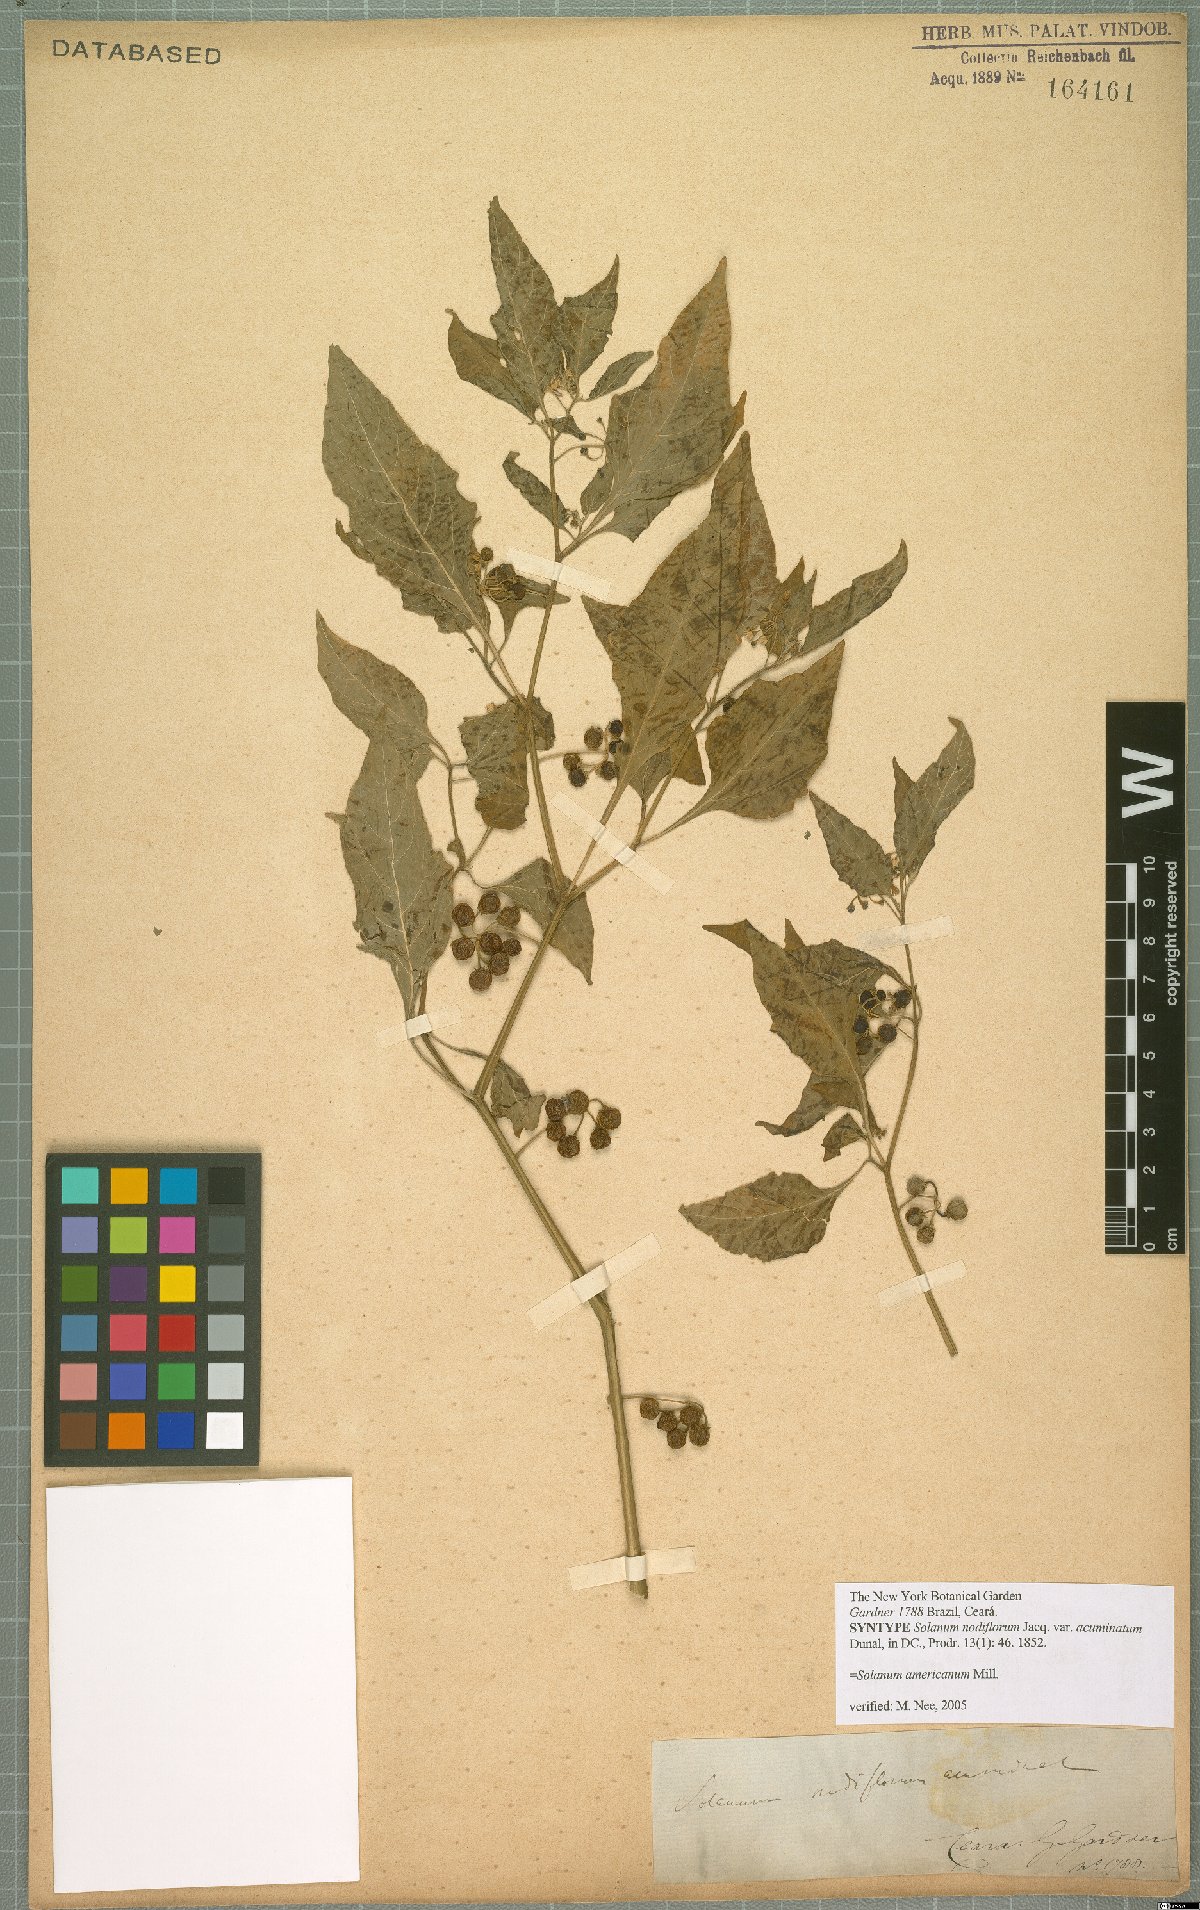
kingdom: Plantae
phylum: Tracheophyta
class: Magnoliopsida
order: Solanales
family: Solanaceae
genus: Solanum
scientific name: Solanum americanum
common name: American black nightshade
